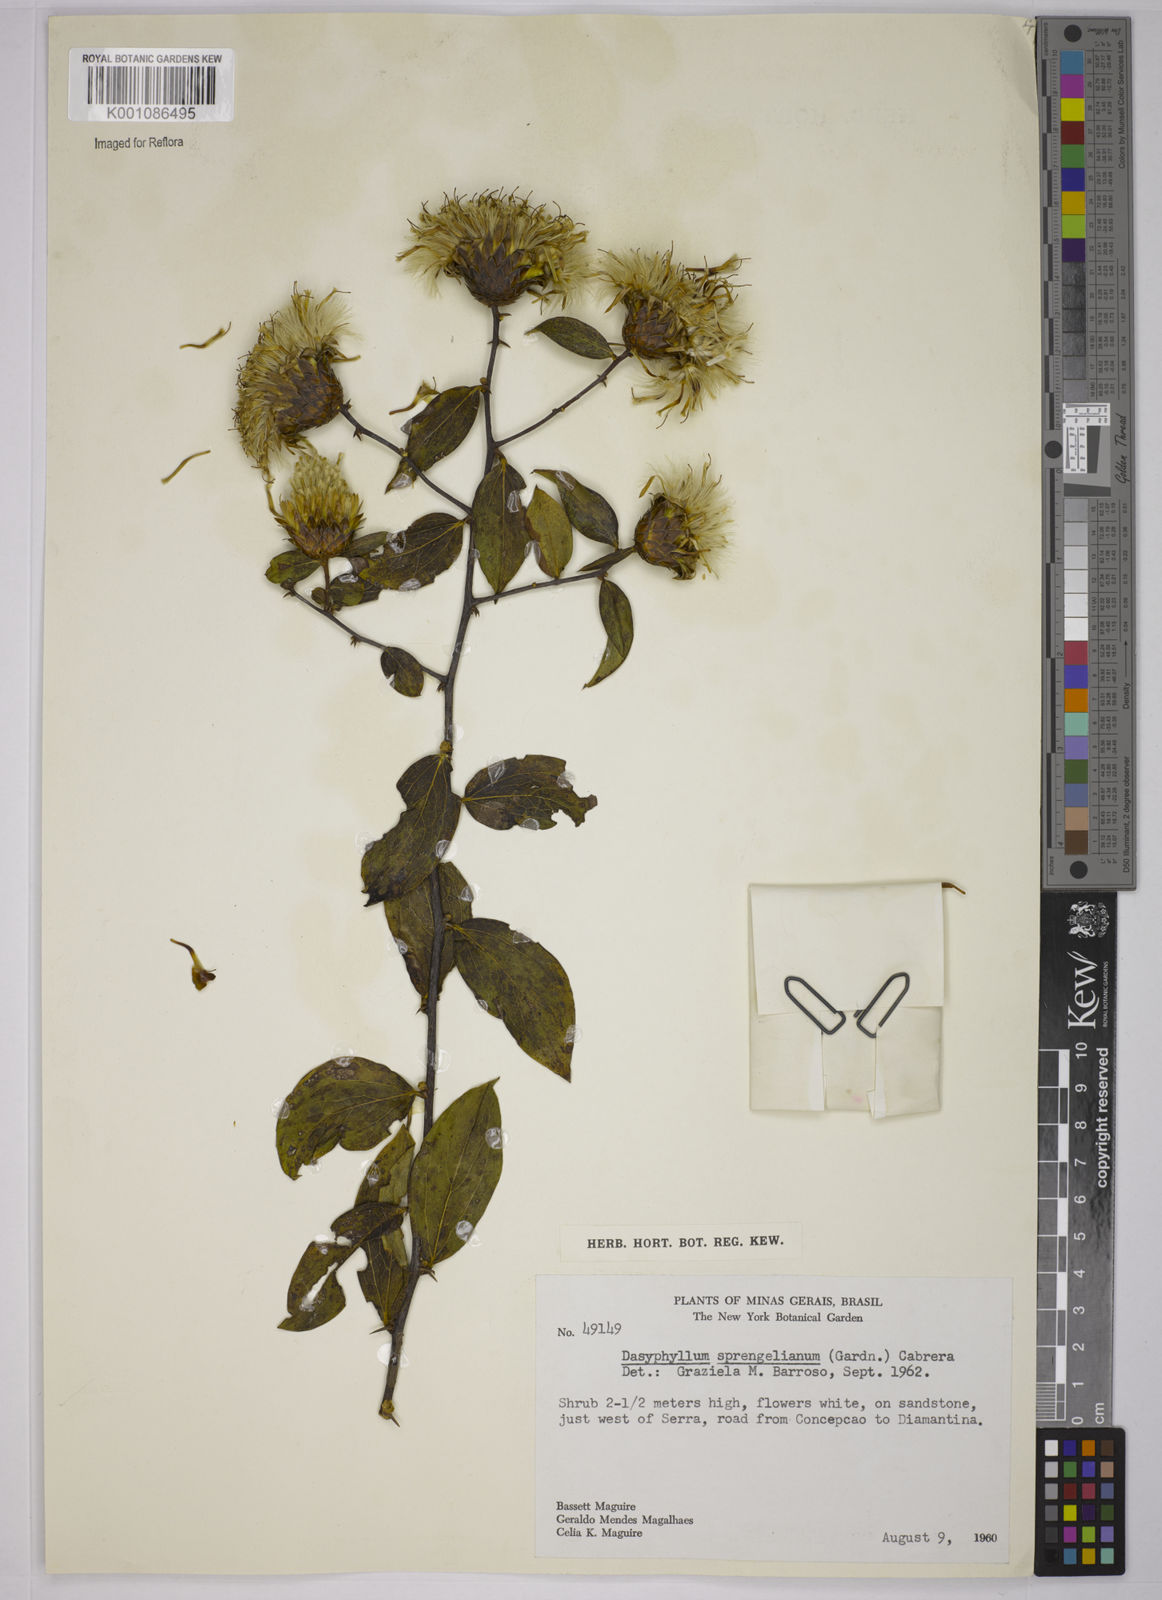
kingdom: Plantae
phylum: Tracheophyta
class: Magnoliopsida
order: Asterales
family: Asteraceae
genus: Dasyphyllum
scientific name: Dasyphyllum sprengelianum
